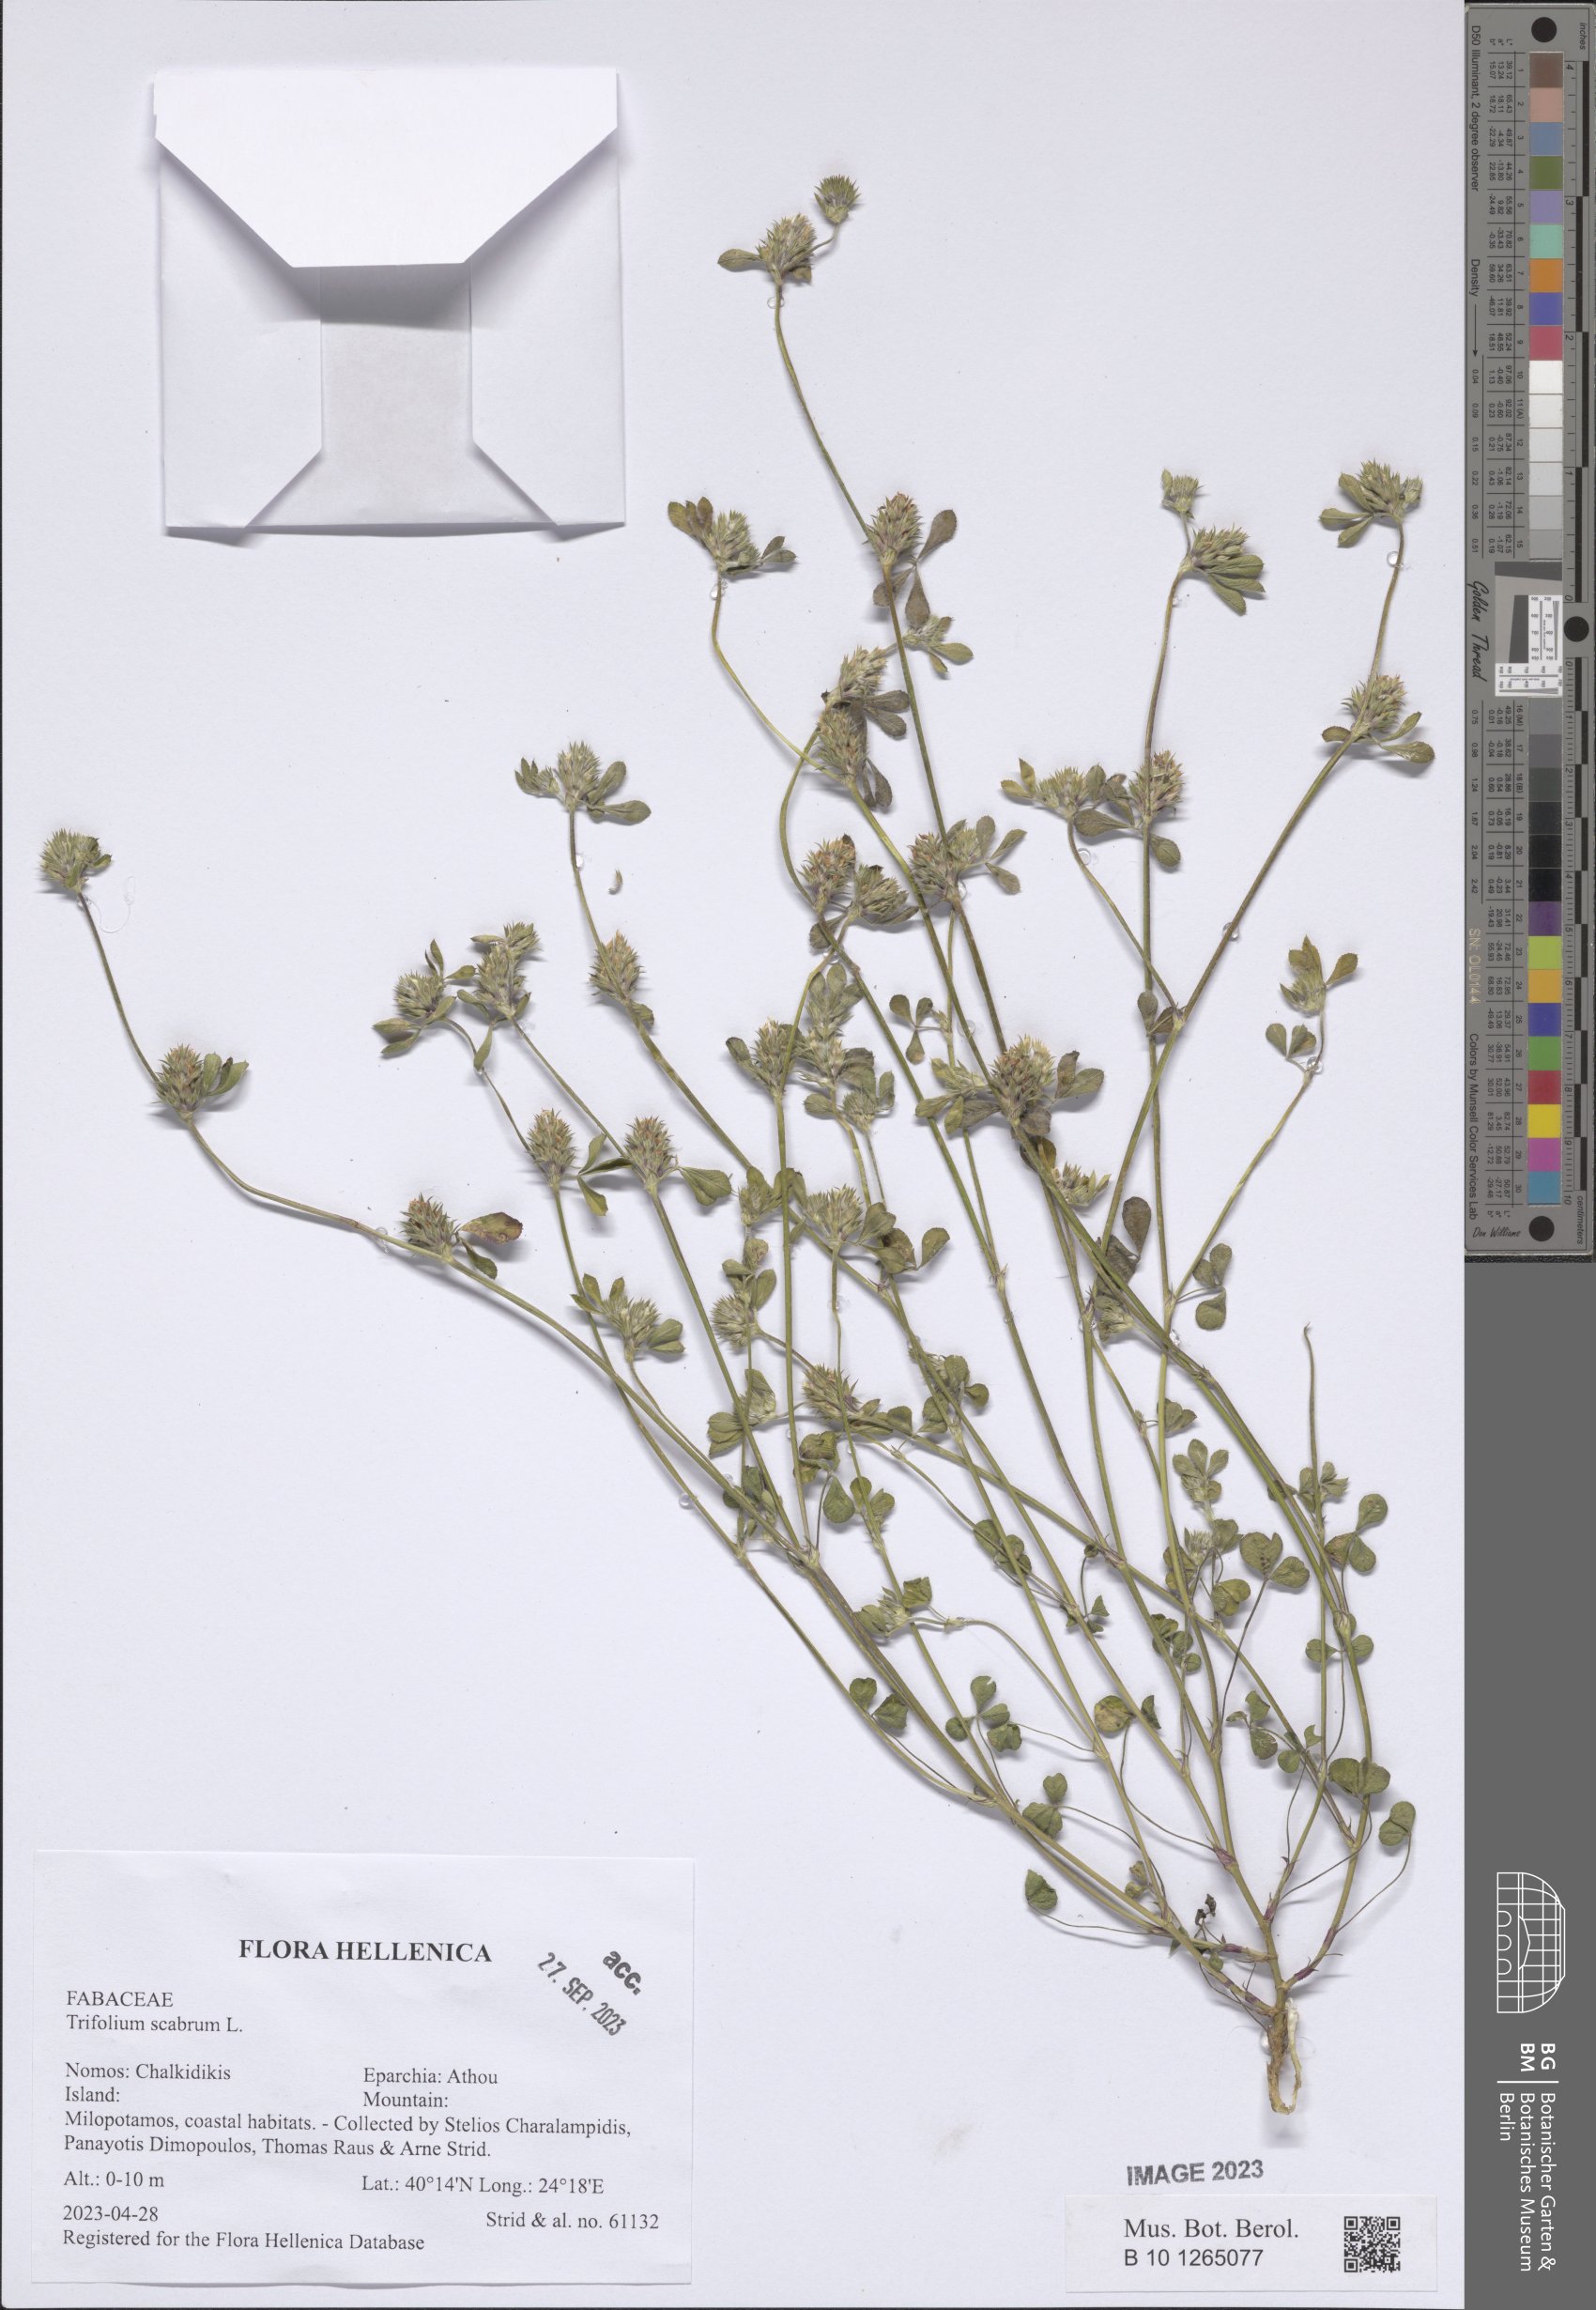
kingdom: Plantae
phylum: Tracheophyta
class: Magnoliopsida
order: Fabales
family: Fabaceae
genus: Trifolium
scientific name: Trifolium scabrum
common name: Rough clover
